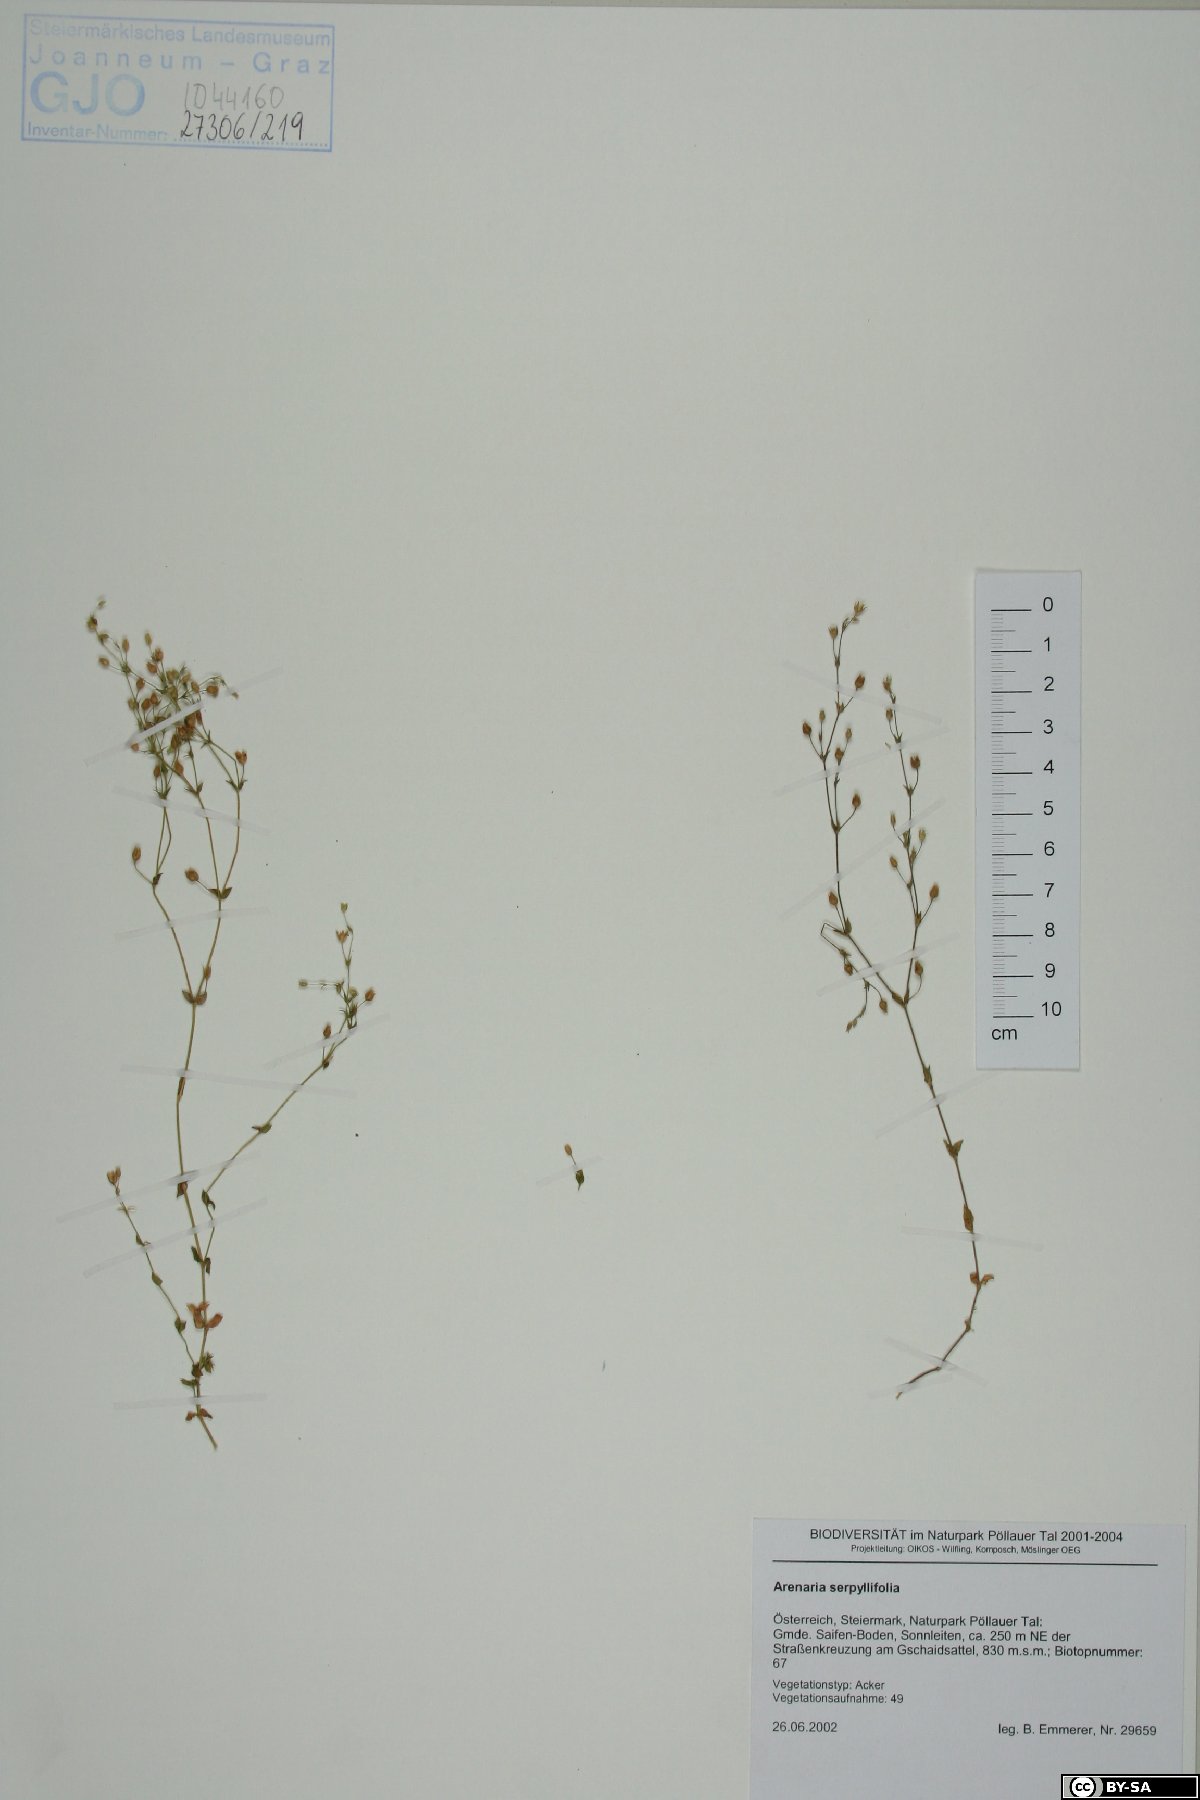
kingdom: Plantae
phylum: Tracheophyta
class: Magnoliopsida
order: Caryophyllales
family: Caryophyllaceae
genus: Arenaria
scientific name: Arenaria serpyllifolia
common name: Thyme-leaved sandwort
